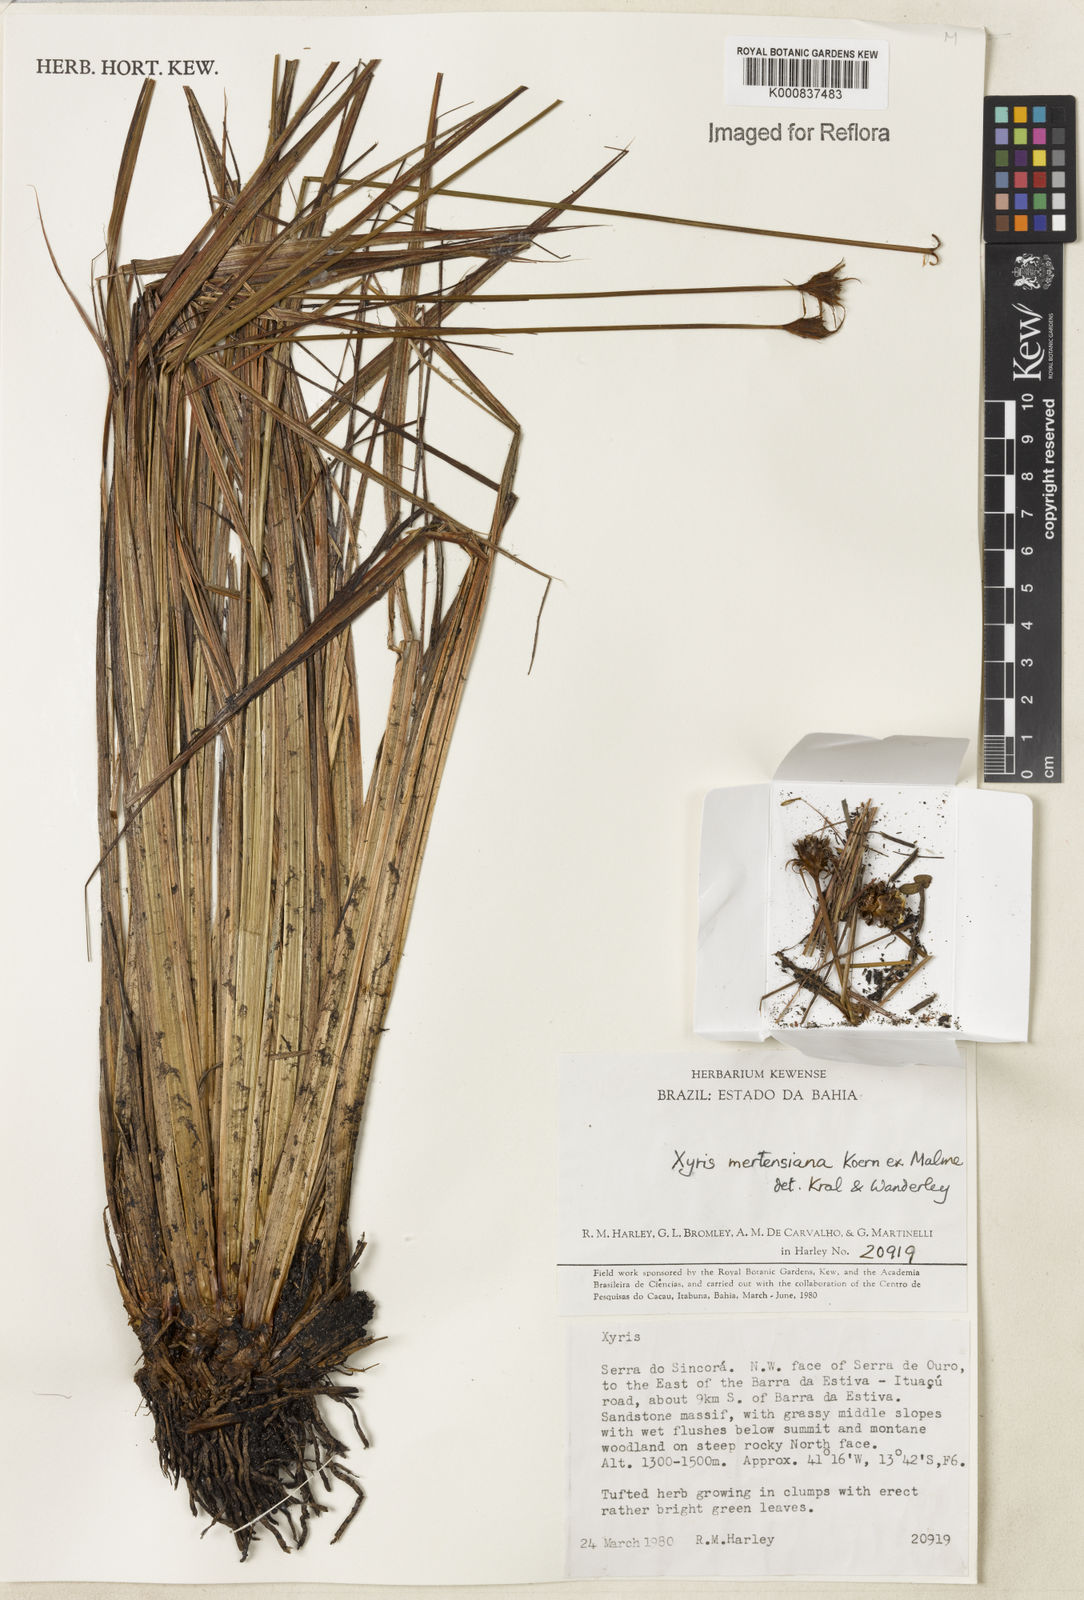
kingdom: Plantae
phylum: Tracheophyta
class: Liliopsida
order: Poales
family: Xyridaceae
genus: Xyris
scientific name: Xyris
